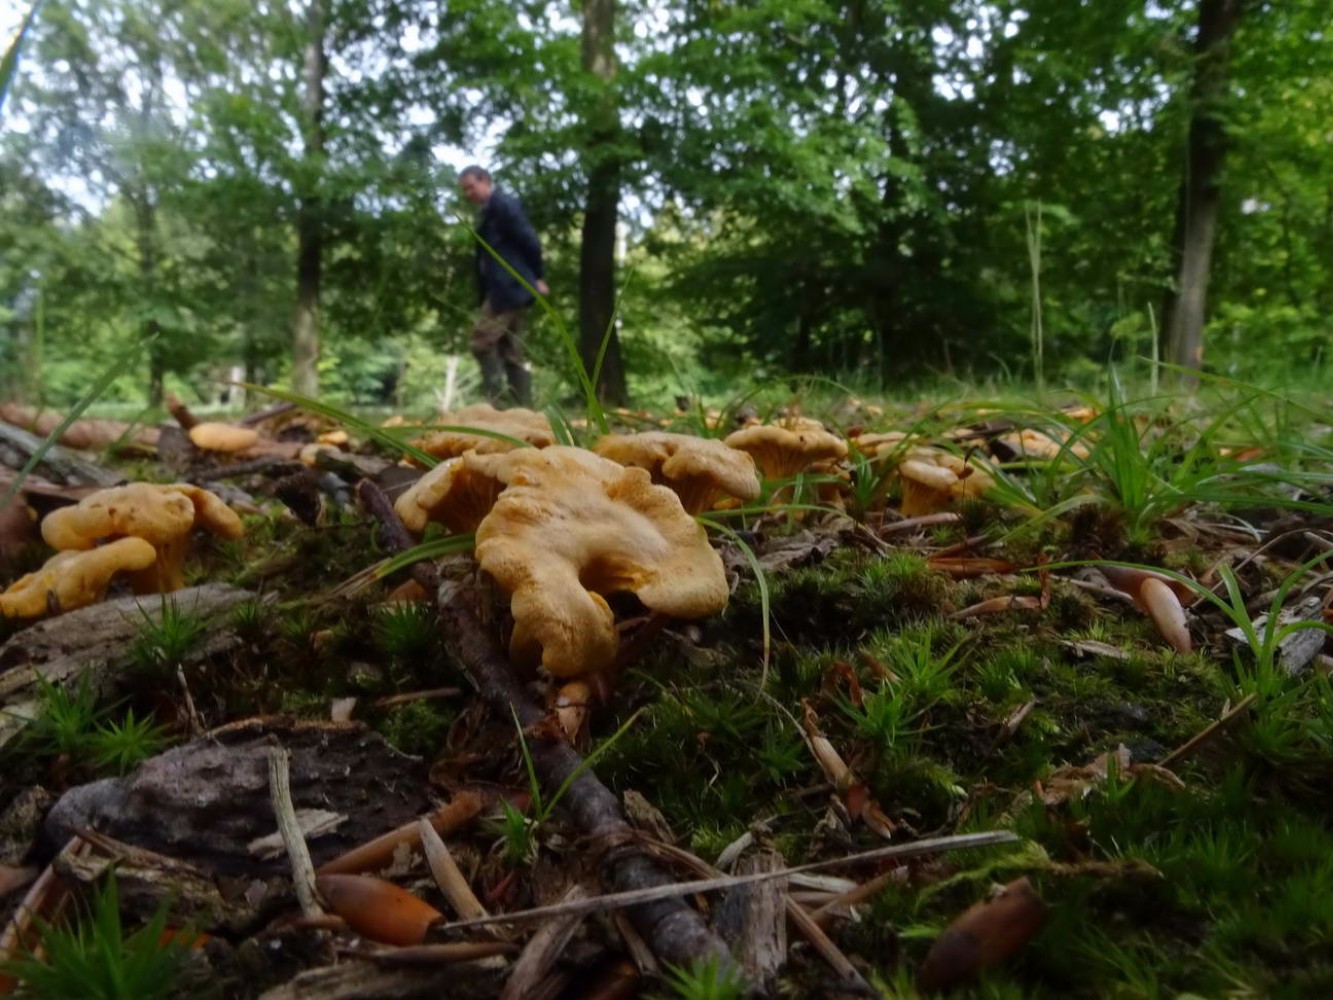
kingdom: Fungi
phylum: Basidiomycota
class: Agaricomycetes
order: Cantharellales
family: Hydnaceae
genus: Cantharellus
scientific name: Cantharellus cibarius
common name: almindelig kantarel
